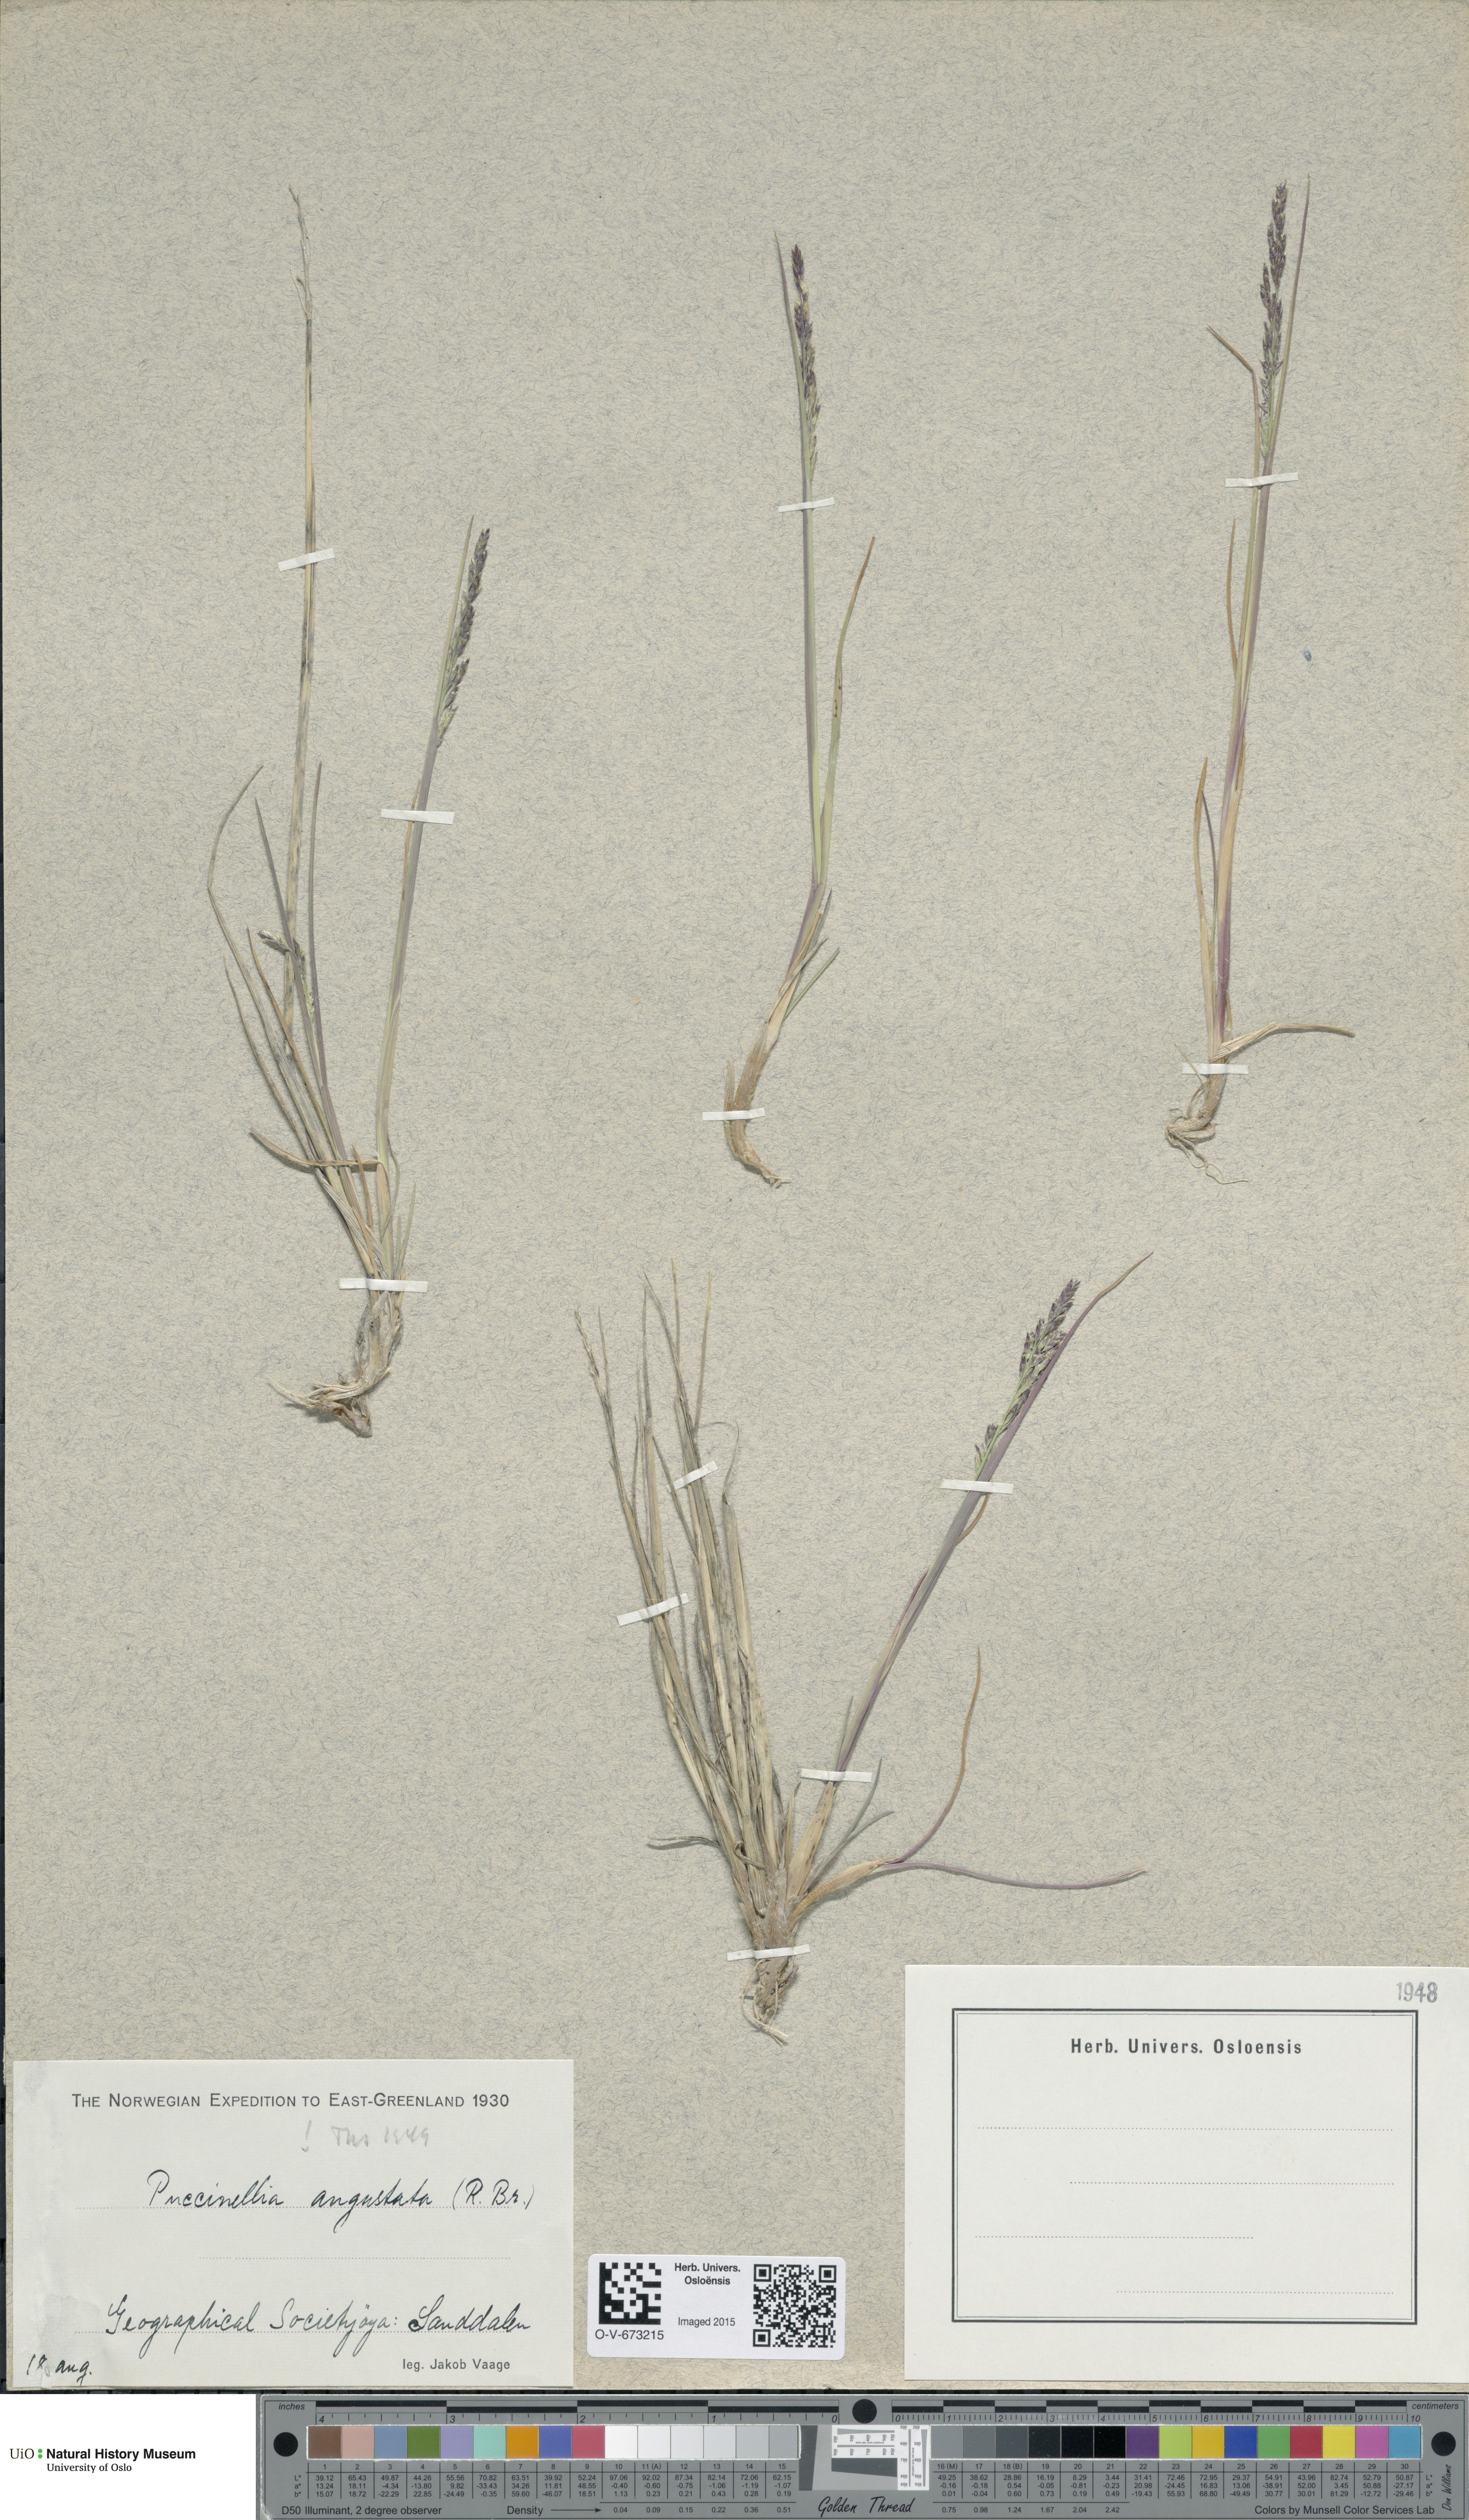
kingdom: Plantae
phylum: Tracheophyta
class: Liliopsida
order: Poales
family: Poaceae
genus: Puccinellia
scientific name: Puccinellia angustata
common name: Narrow alkaligrass
